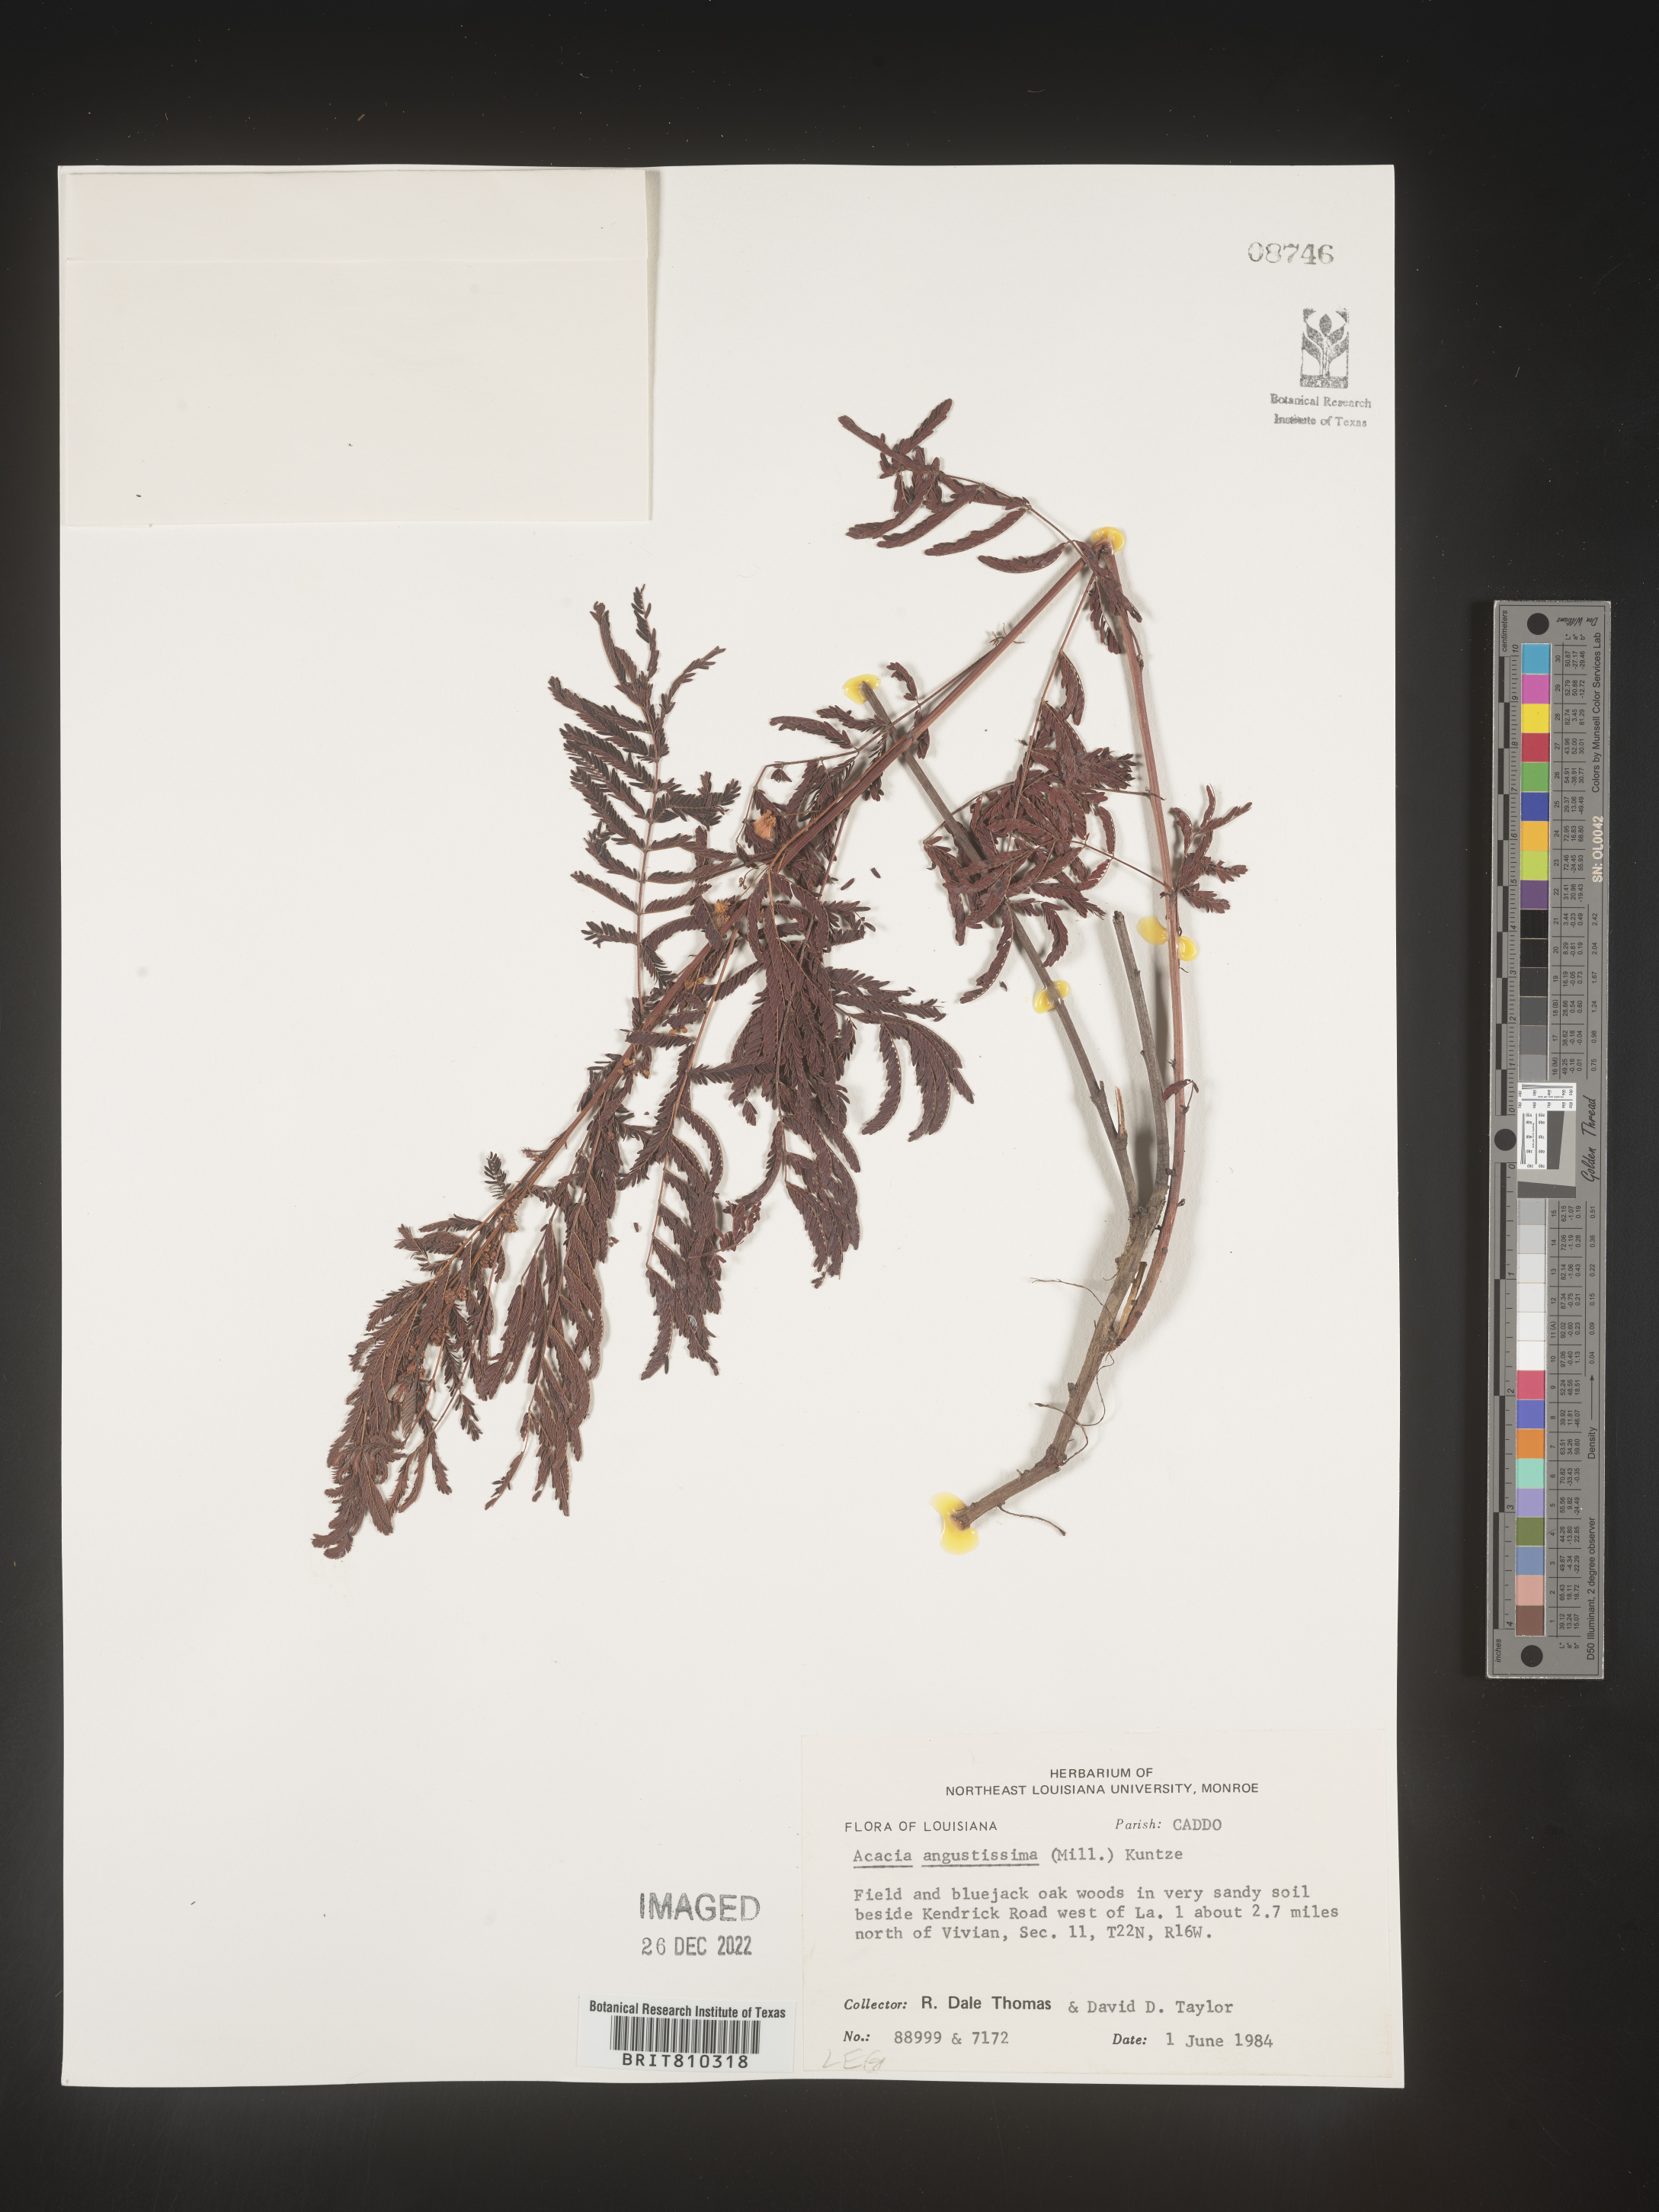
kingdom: Plantae
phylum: Tracheophyta
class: Magnoliopsida
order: Fabales
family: Fabaceae
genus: Acaciella
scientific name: Acaciella angustissima
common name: Prairie acacia
